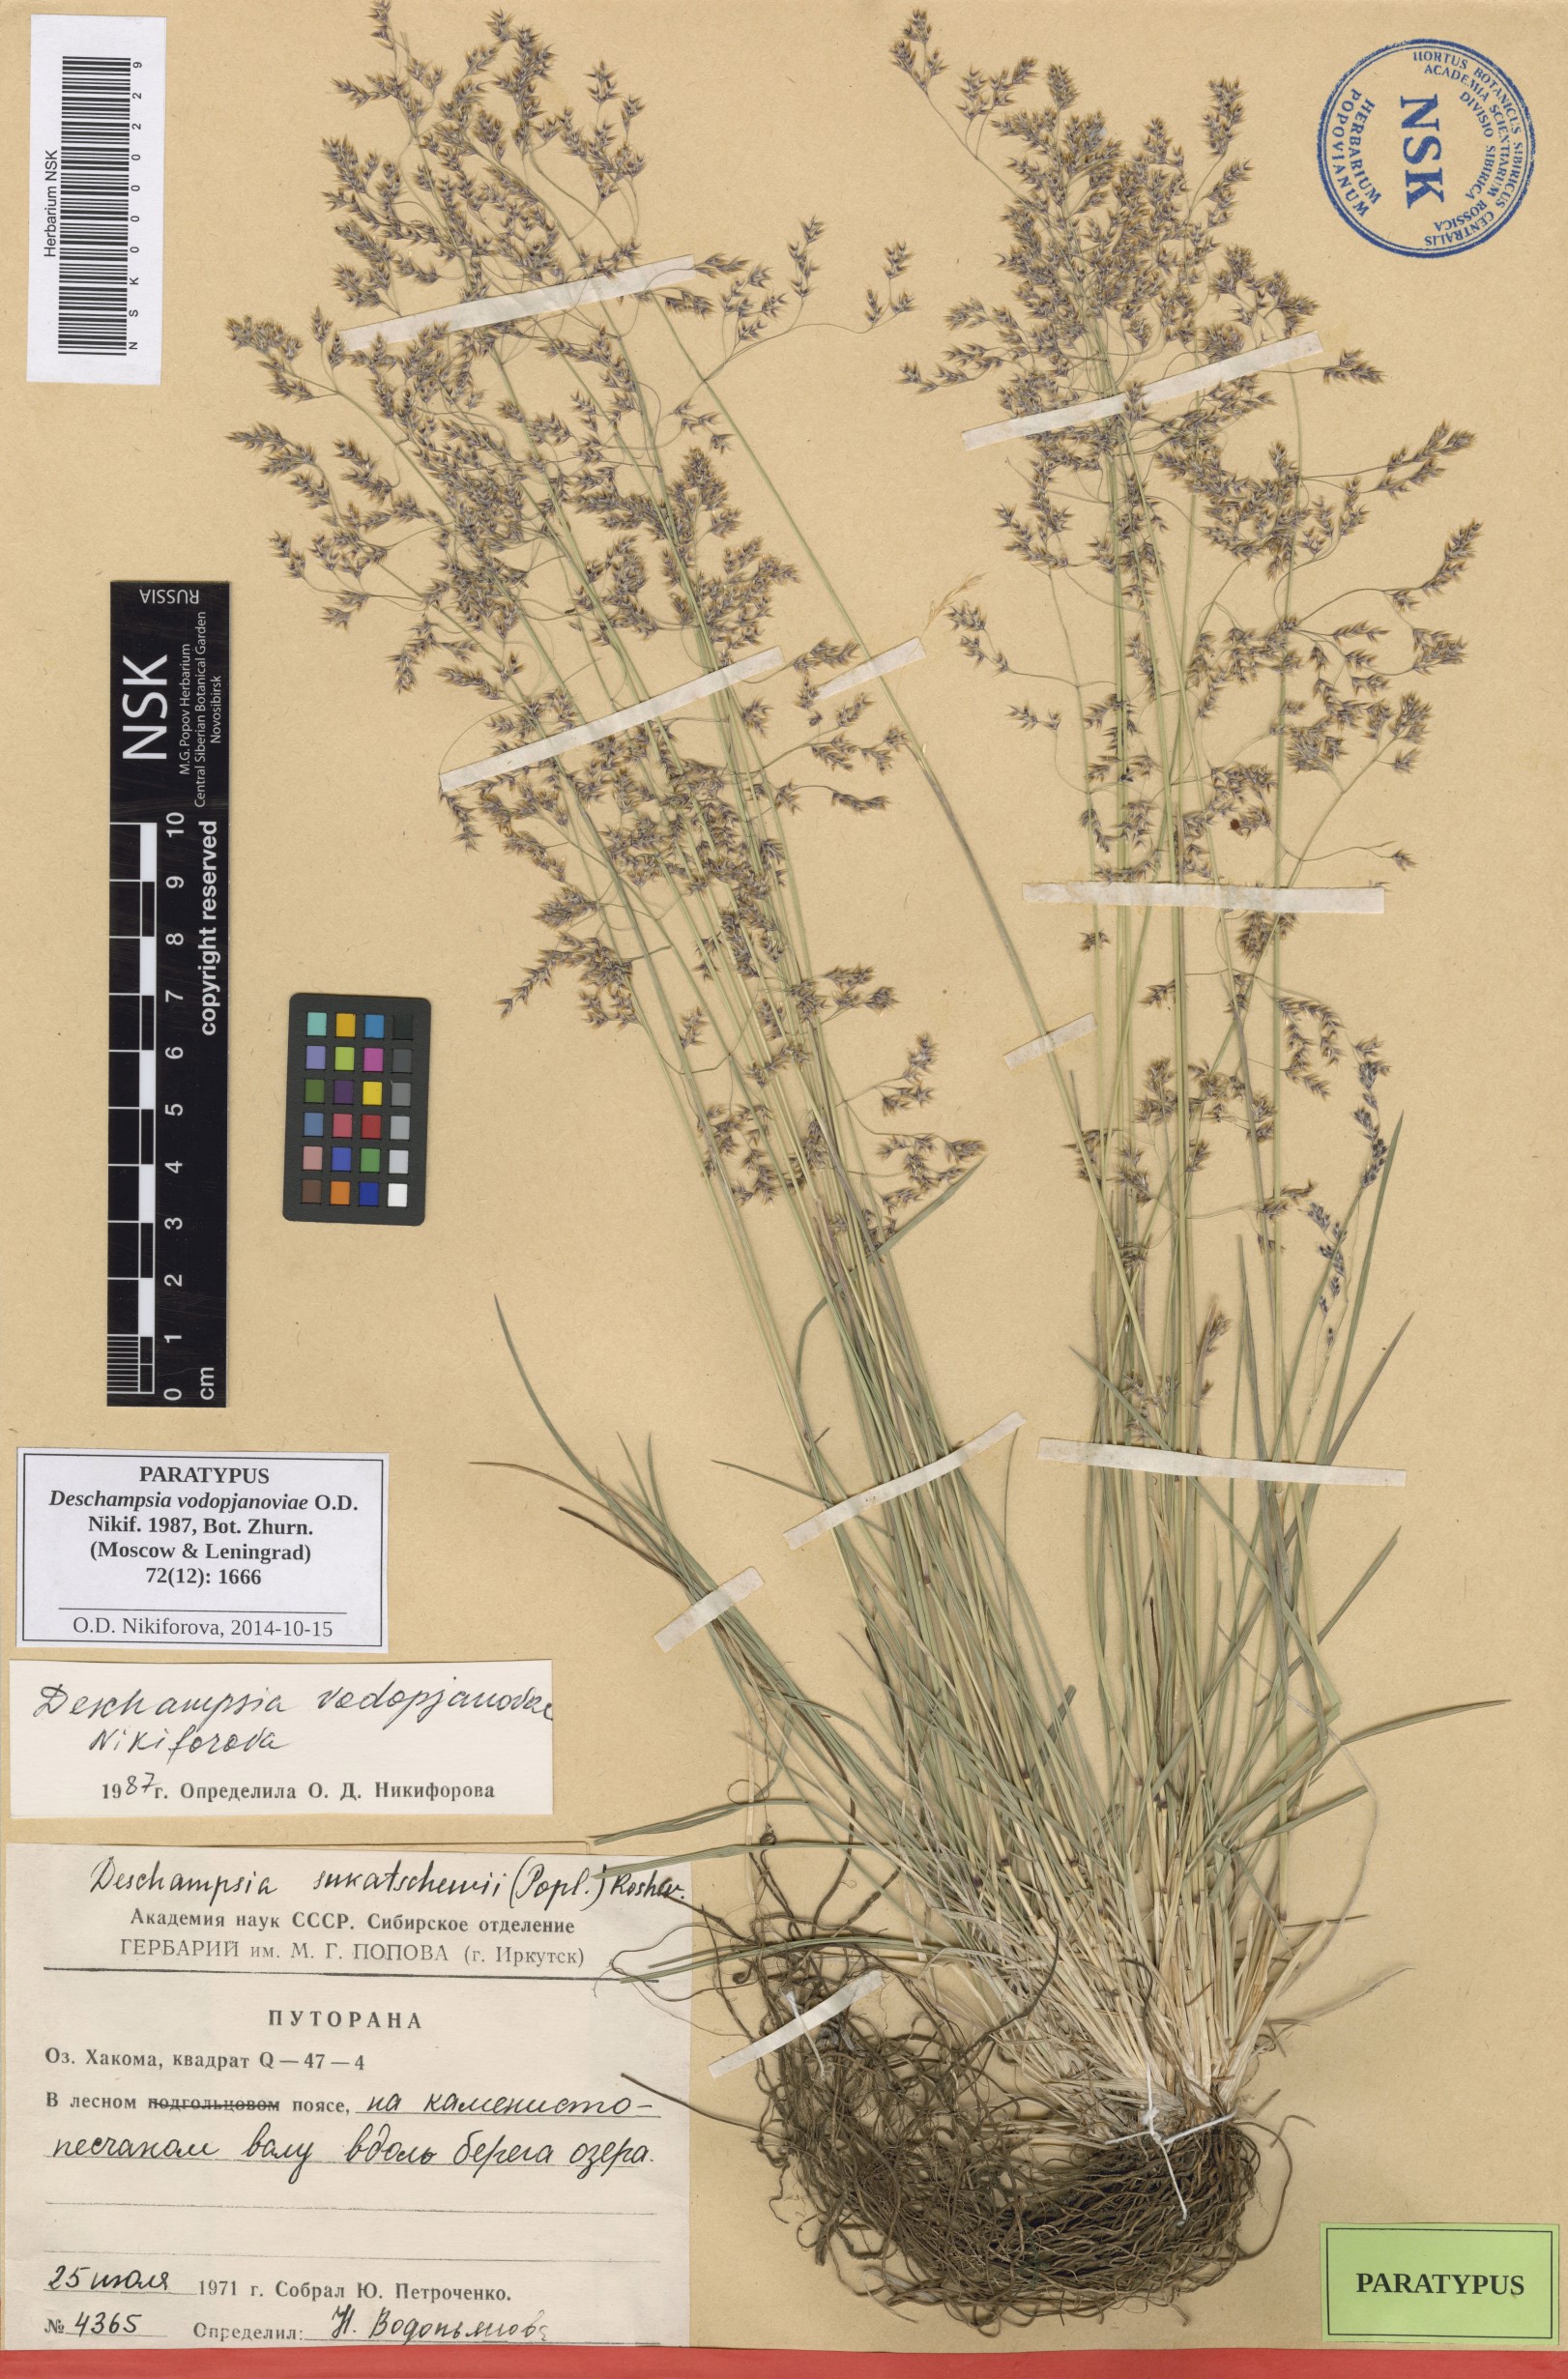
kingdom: Plantae
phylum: Tracheophyta
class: Liliopsida
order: Poales
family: Poaceae
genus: Deschampsia
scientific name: Deschampsia cespitosa
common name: Tufted hair-grass
